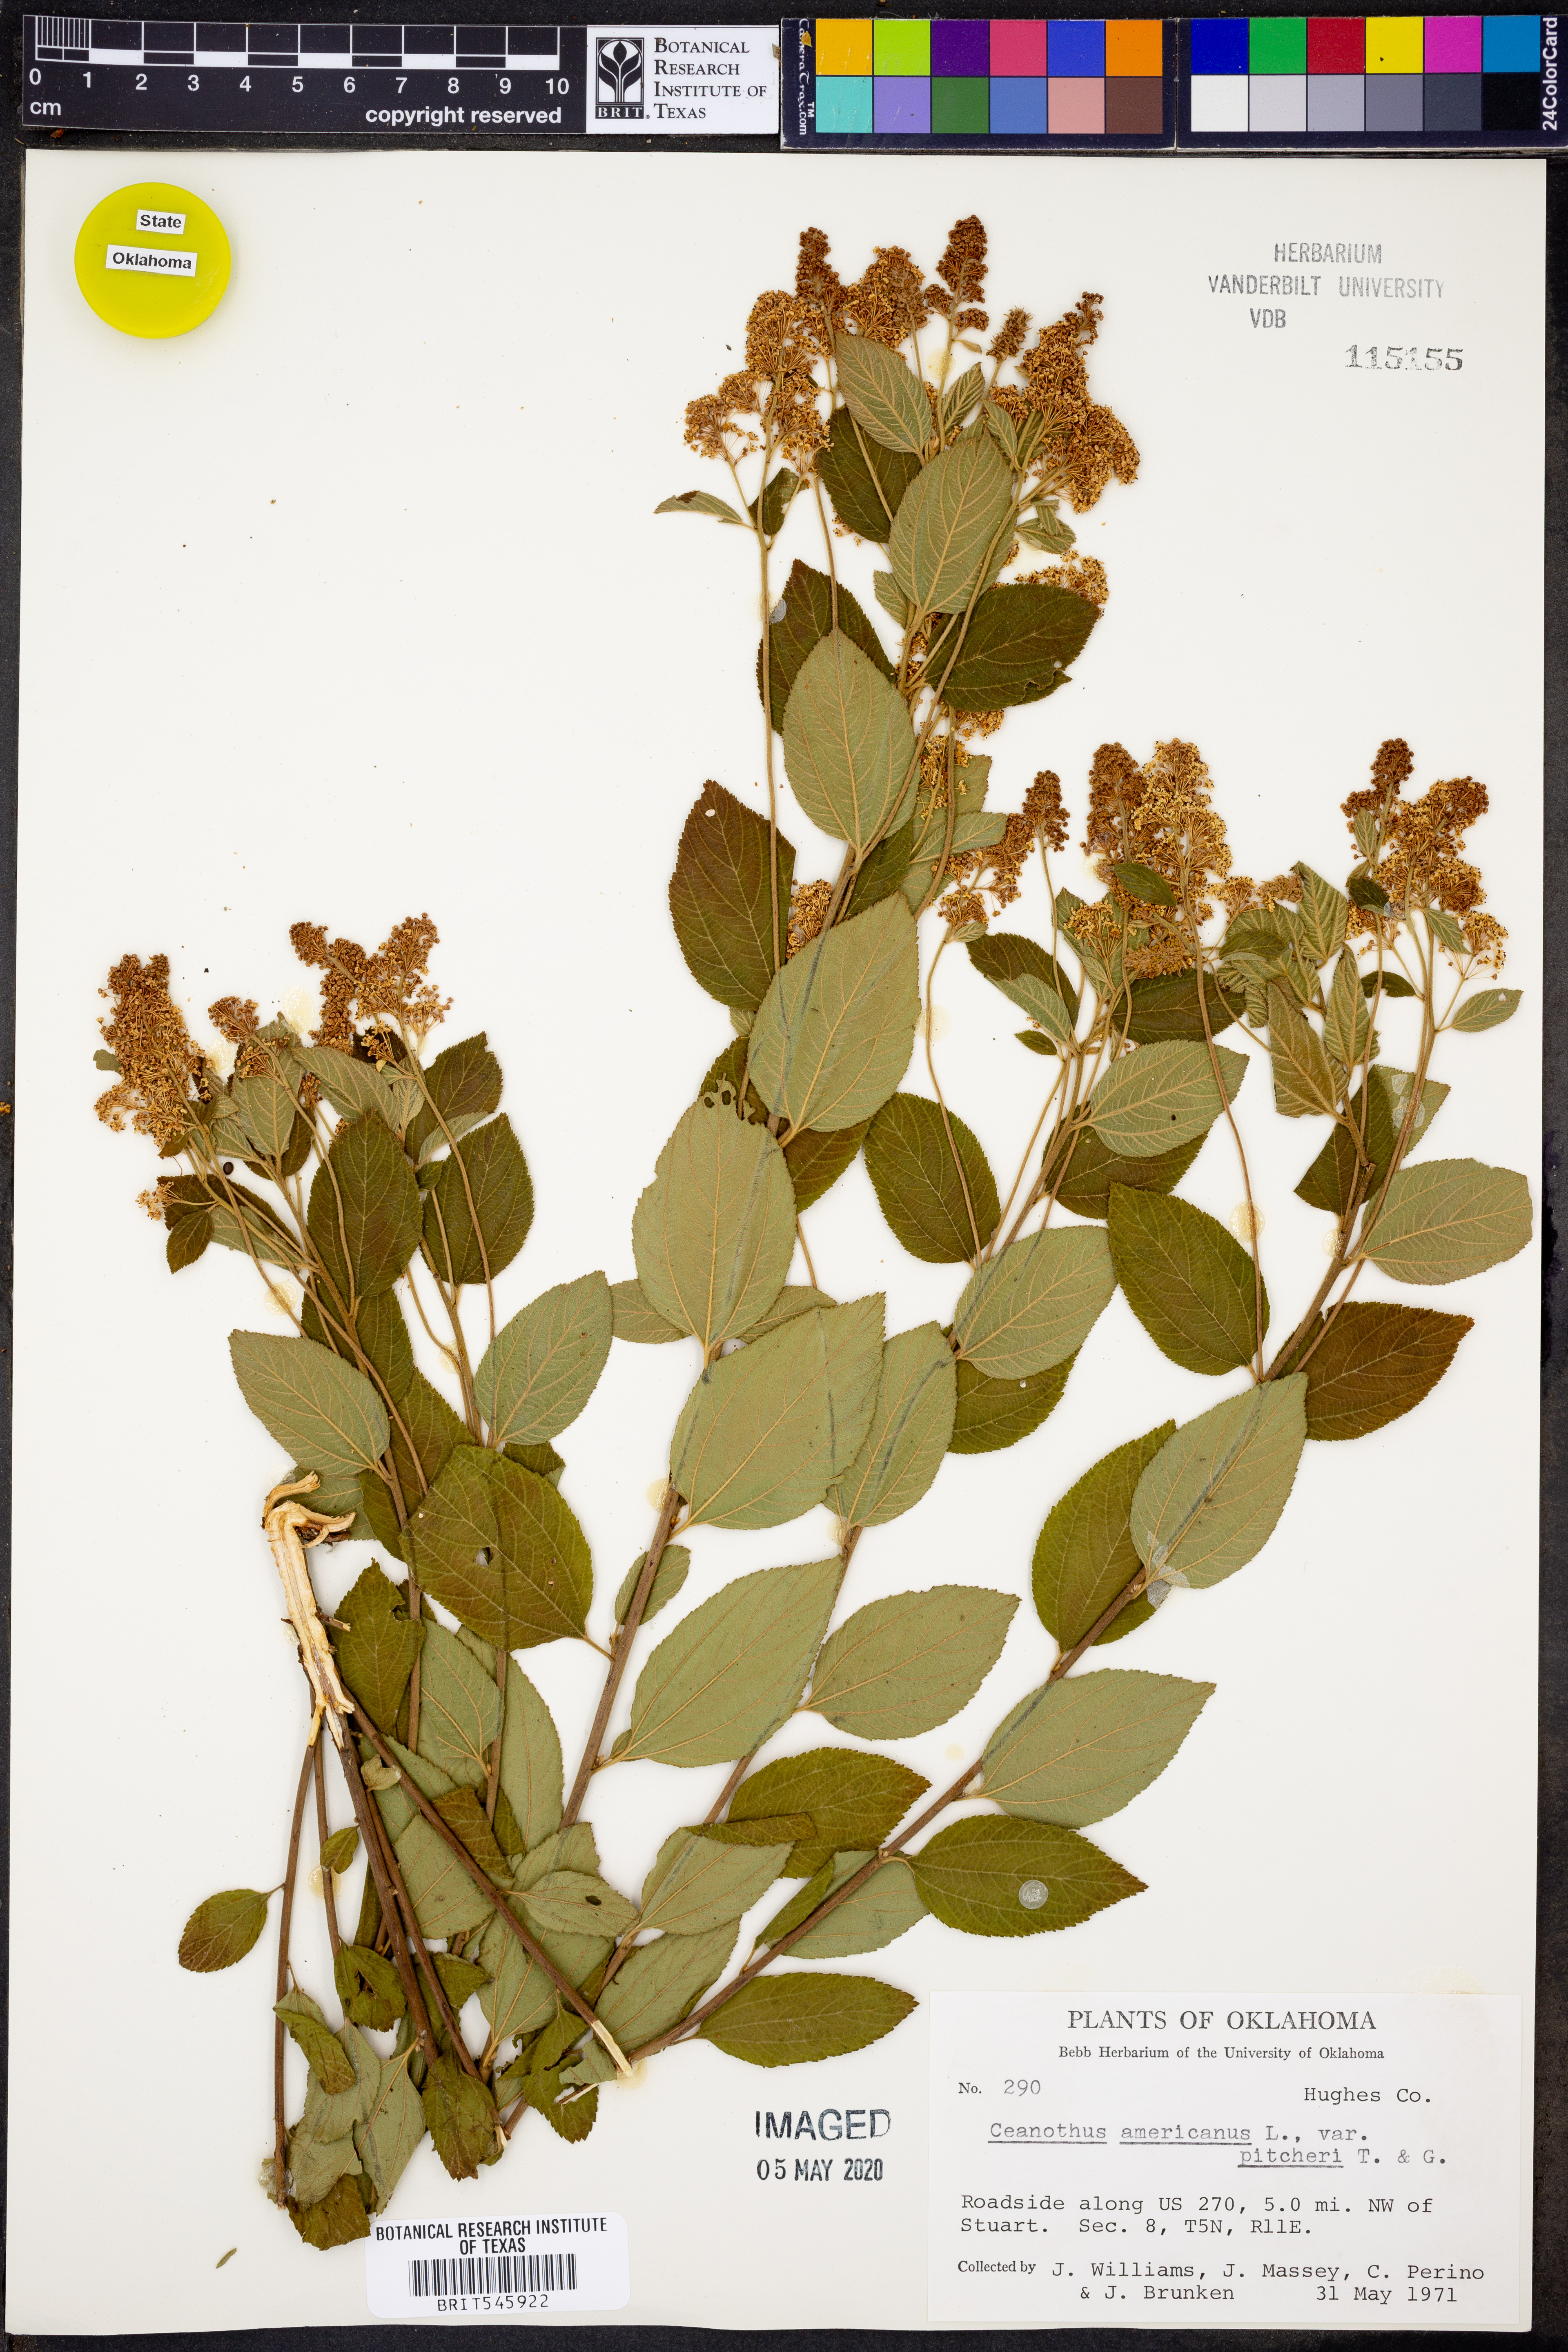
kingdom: Plantae
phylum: Tracheophyta
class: Magnoliopsida
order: Rosales
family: Rhamnaceae
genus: Ceanothus
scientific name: Ceanothus americanus
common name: Redroot
